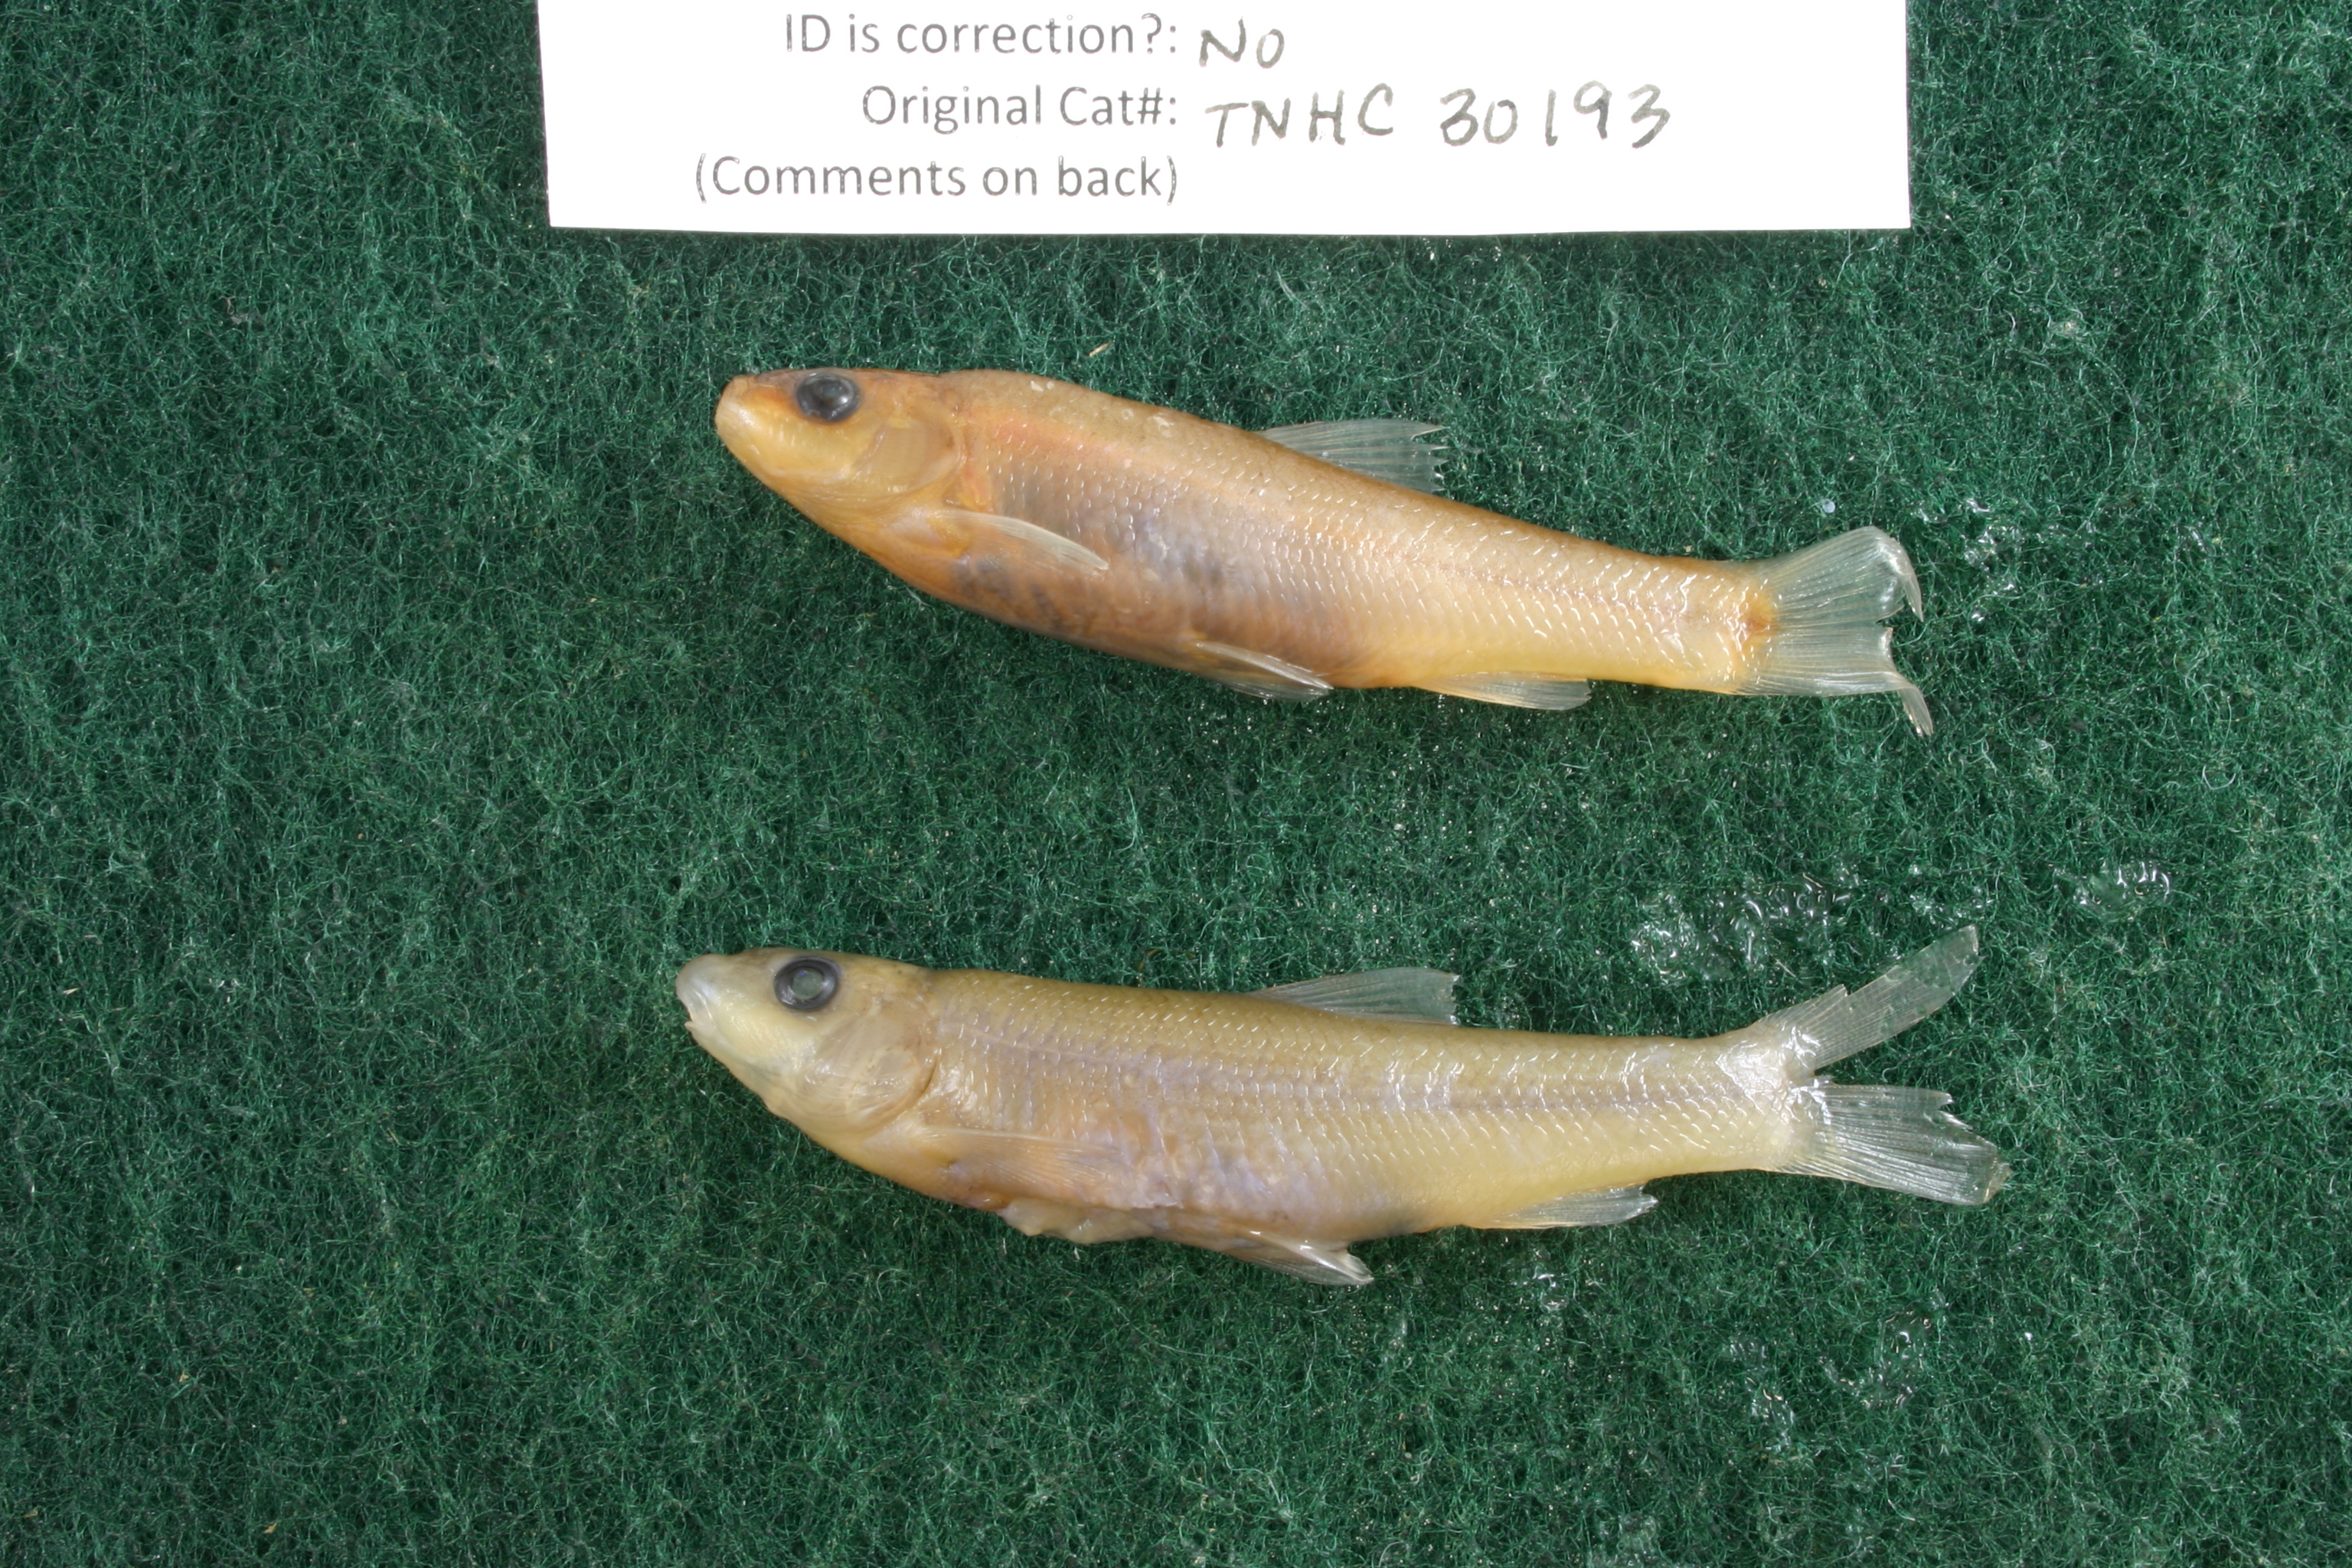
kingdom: Animalia
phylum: Chordata
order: Cypriniformes
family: Cyprinidae
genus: Campostoma
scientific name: Campostoma anomalum
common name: Central stoneroller
